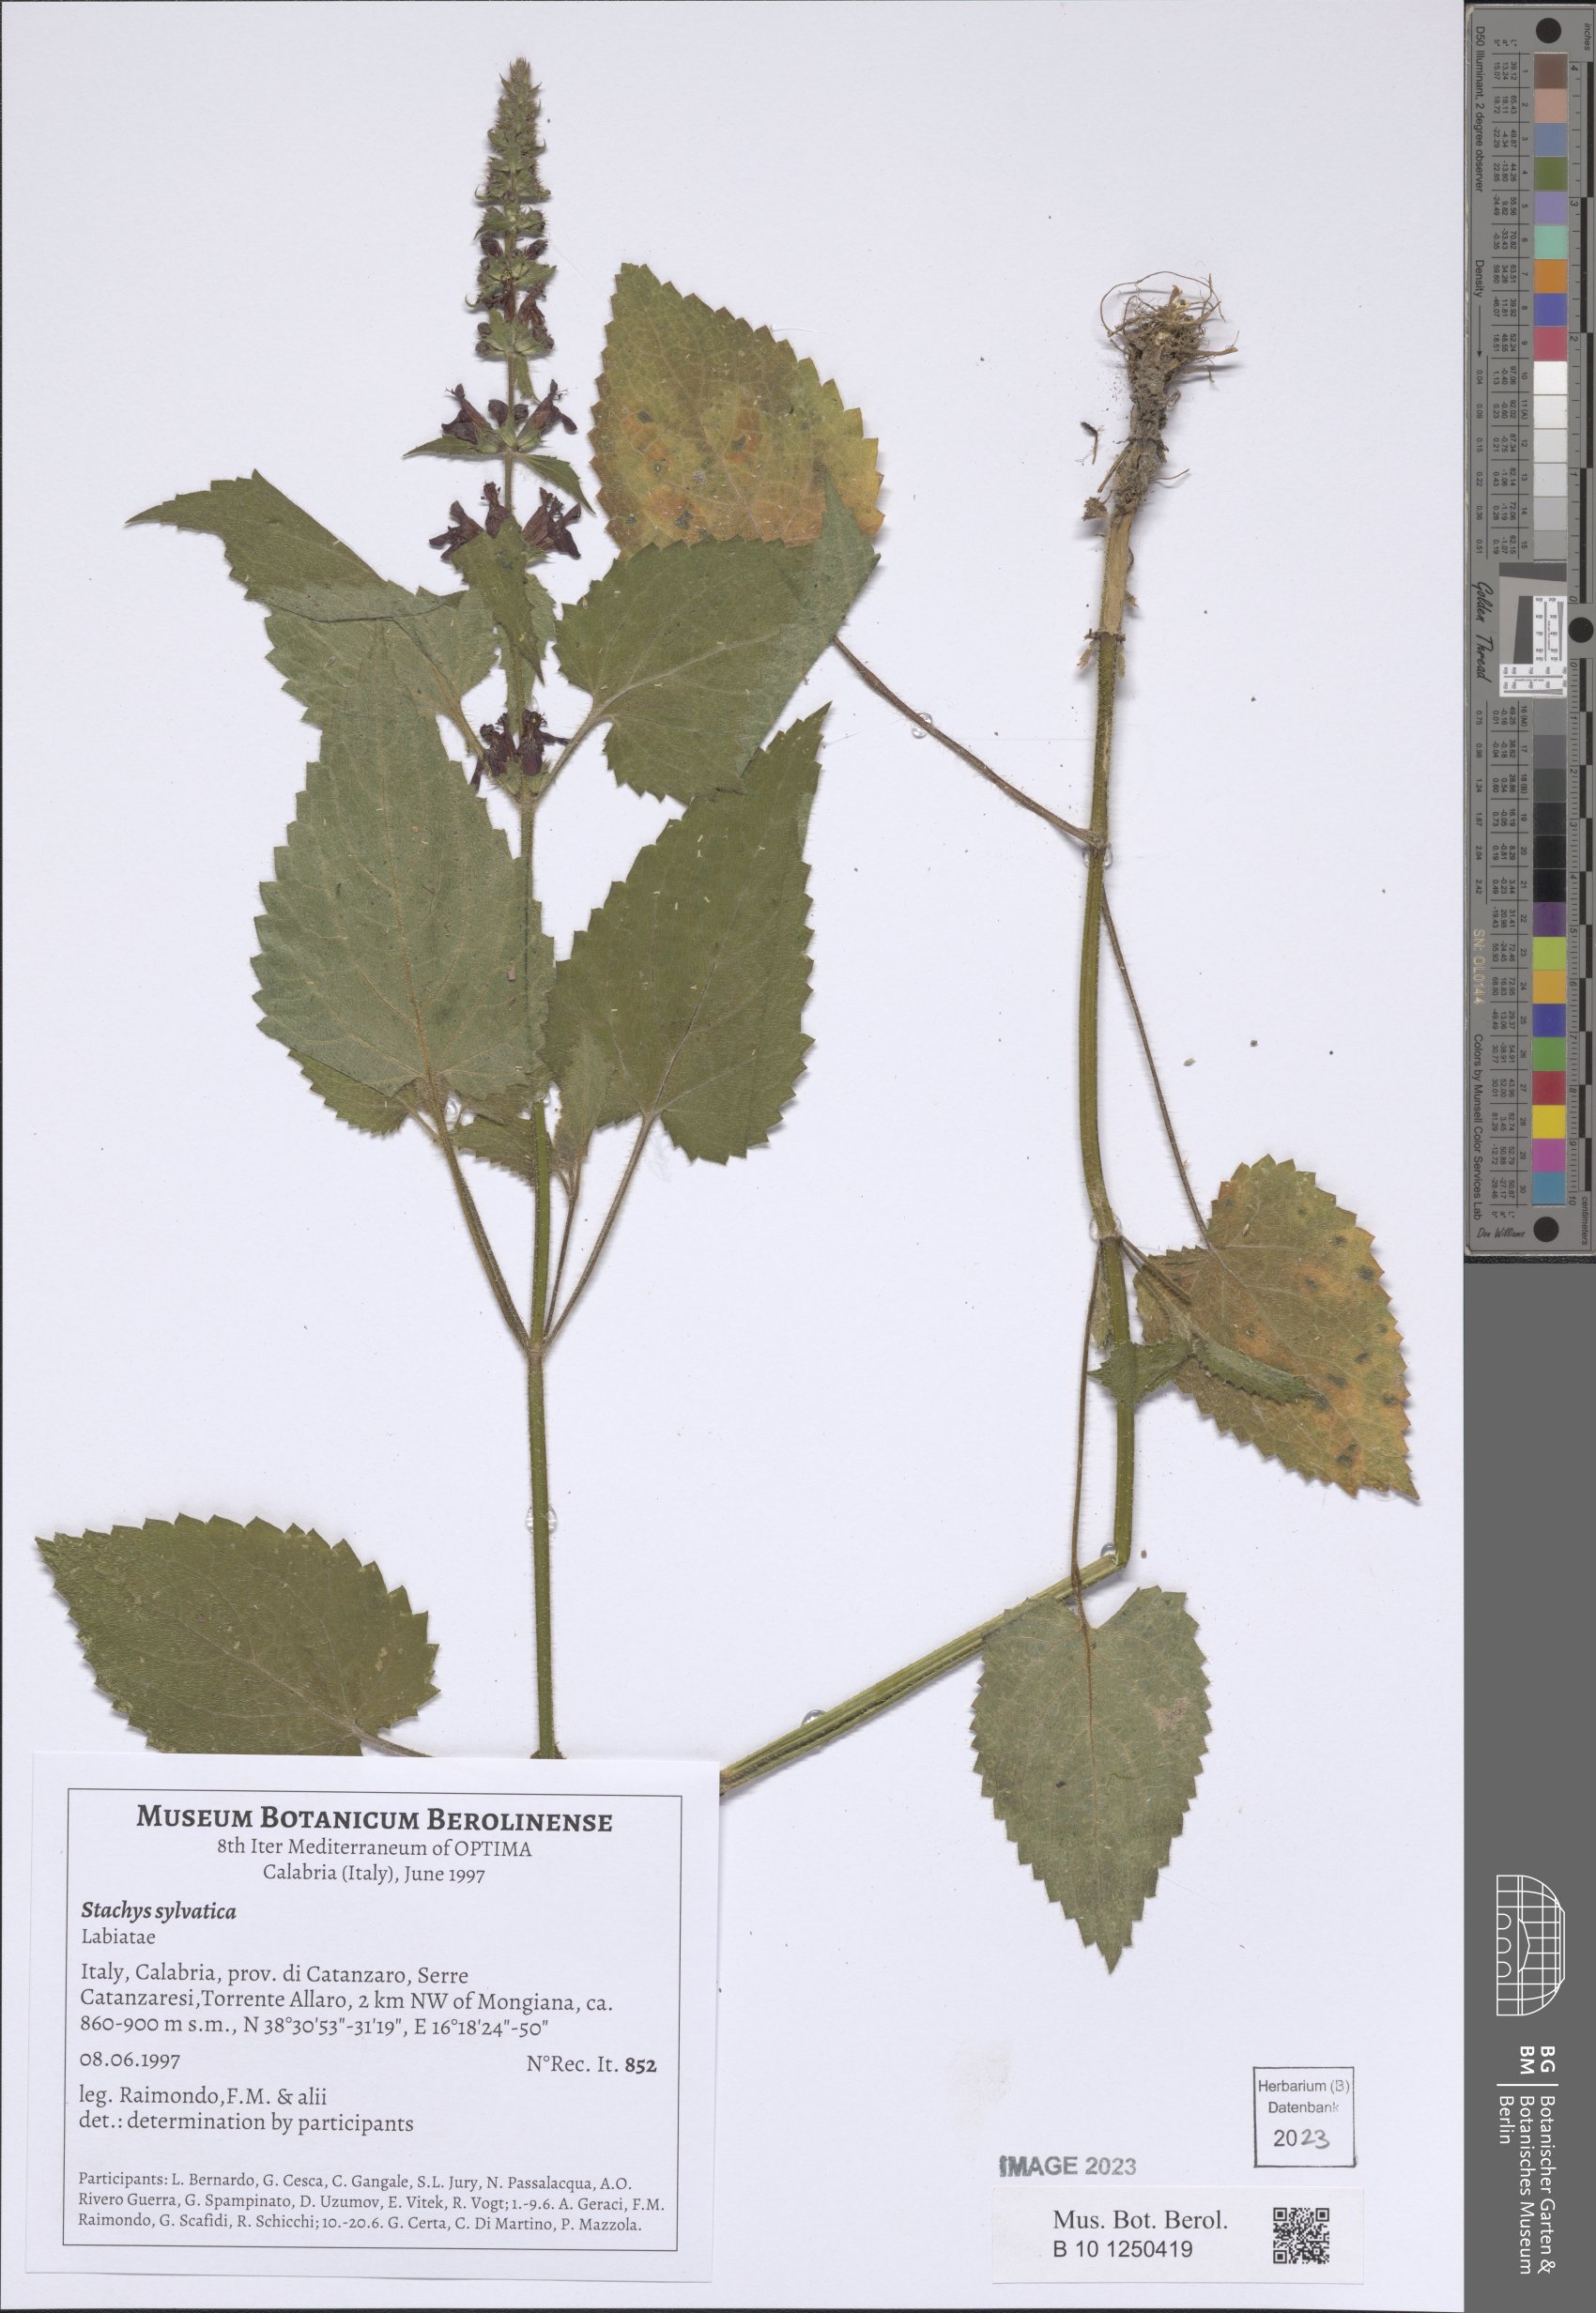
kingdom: Plantae
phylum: Tracheophyta
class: Magnoliopsida
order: Lamiales
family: Lamiaceae
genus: Stachys
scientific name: Stachys sylvatica
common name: Hedge woundwort
